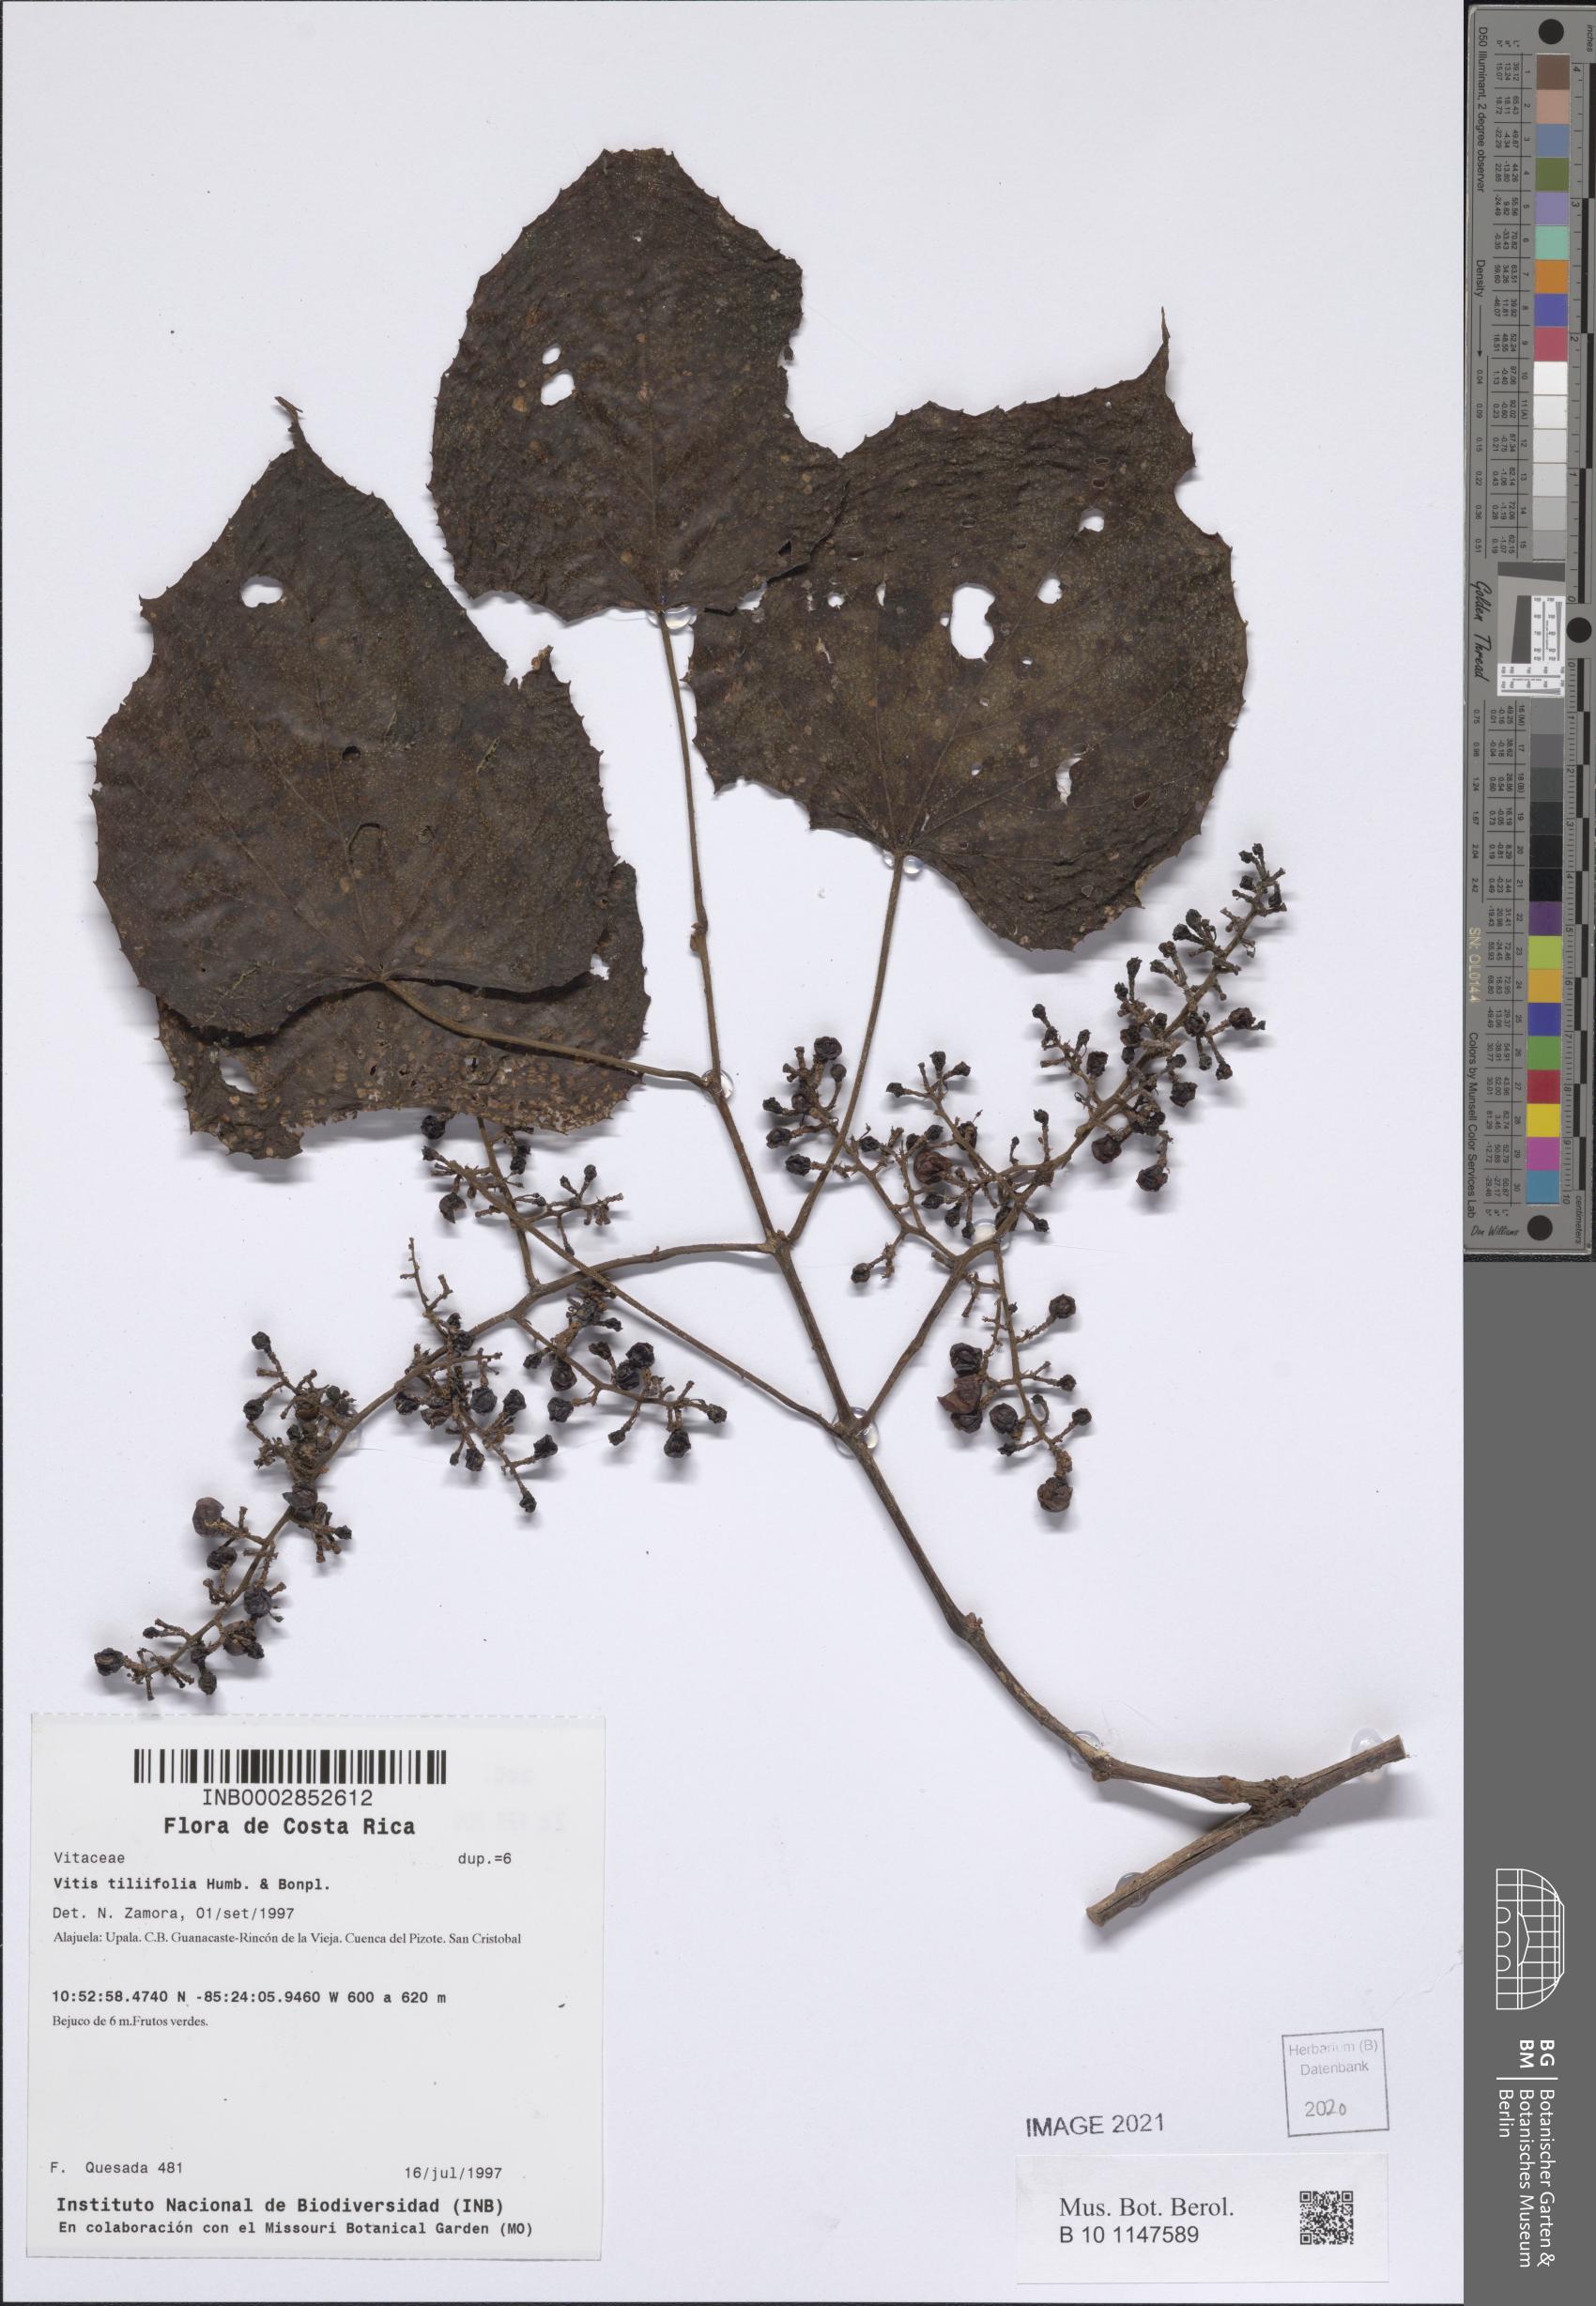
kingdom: Plantae
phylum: Tracheophyta
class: Magnoliopsida
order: Vitales
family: Vitaceae
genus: Vitis
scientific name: Vitis tiliifolia
